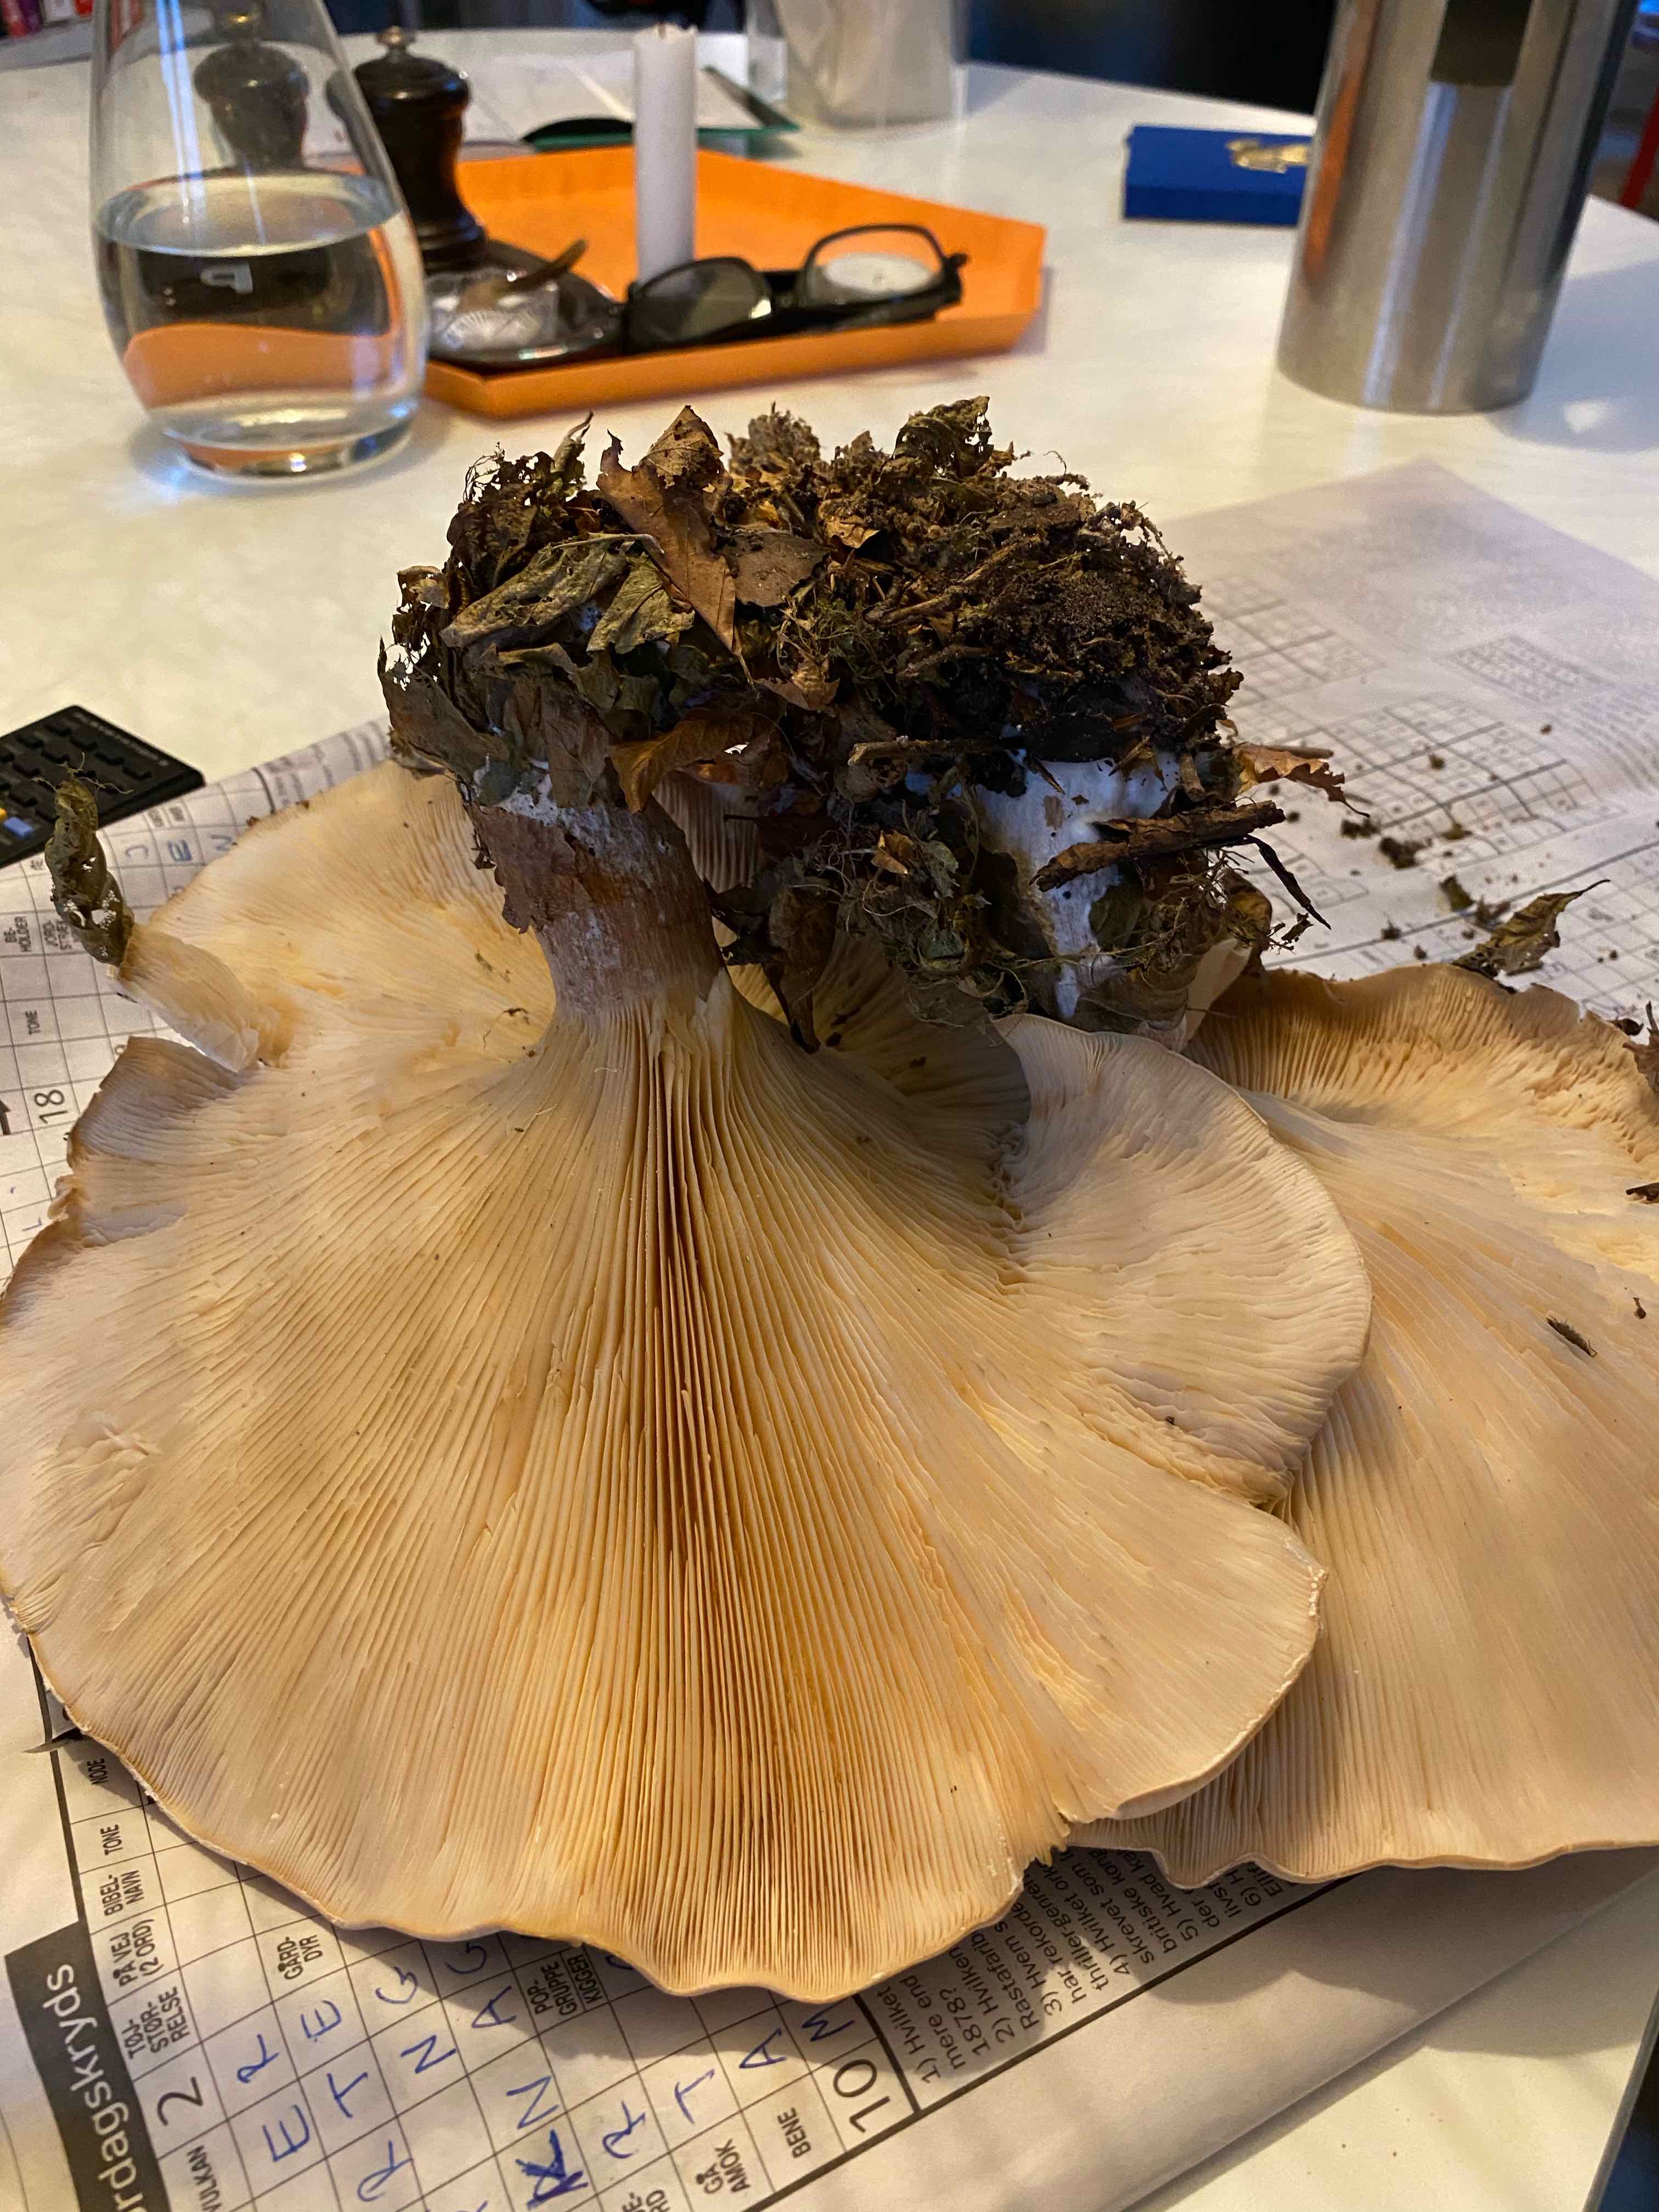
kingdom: Fungi
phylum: Basidiomycota
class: Agaricomycetes
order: Agaricales
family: Tricholomataceae
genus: Clitocybe
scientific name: Clitocybe nebularis
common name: tåge-tragthat
